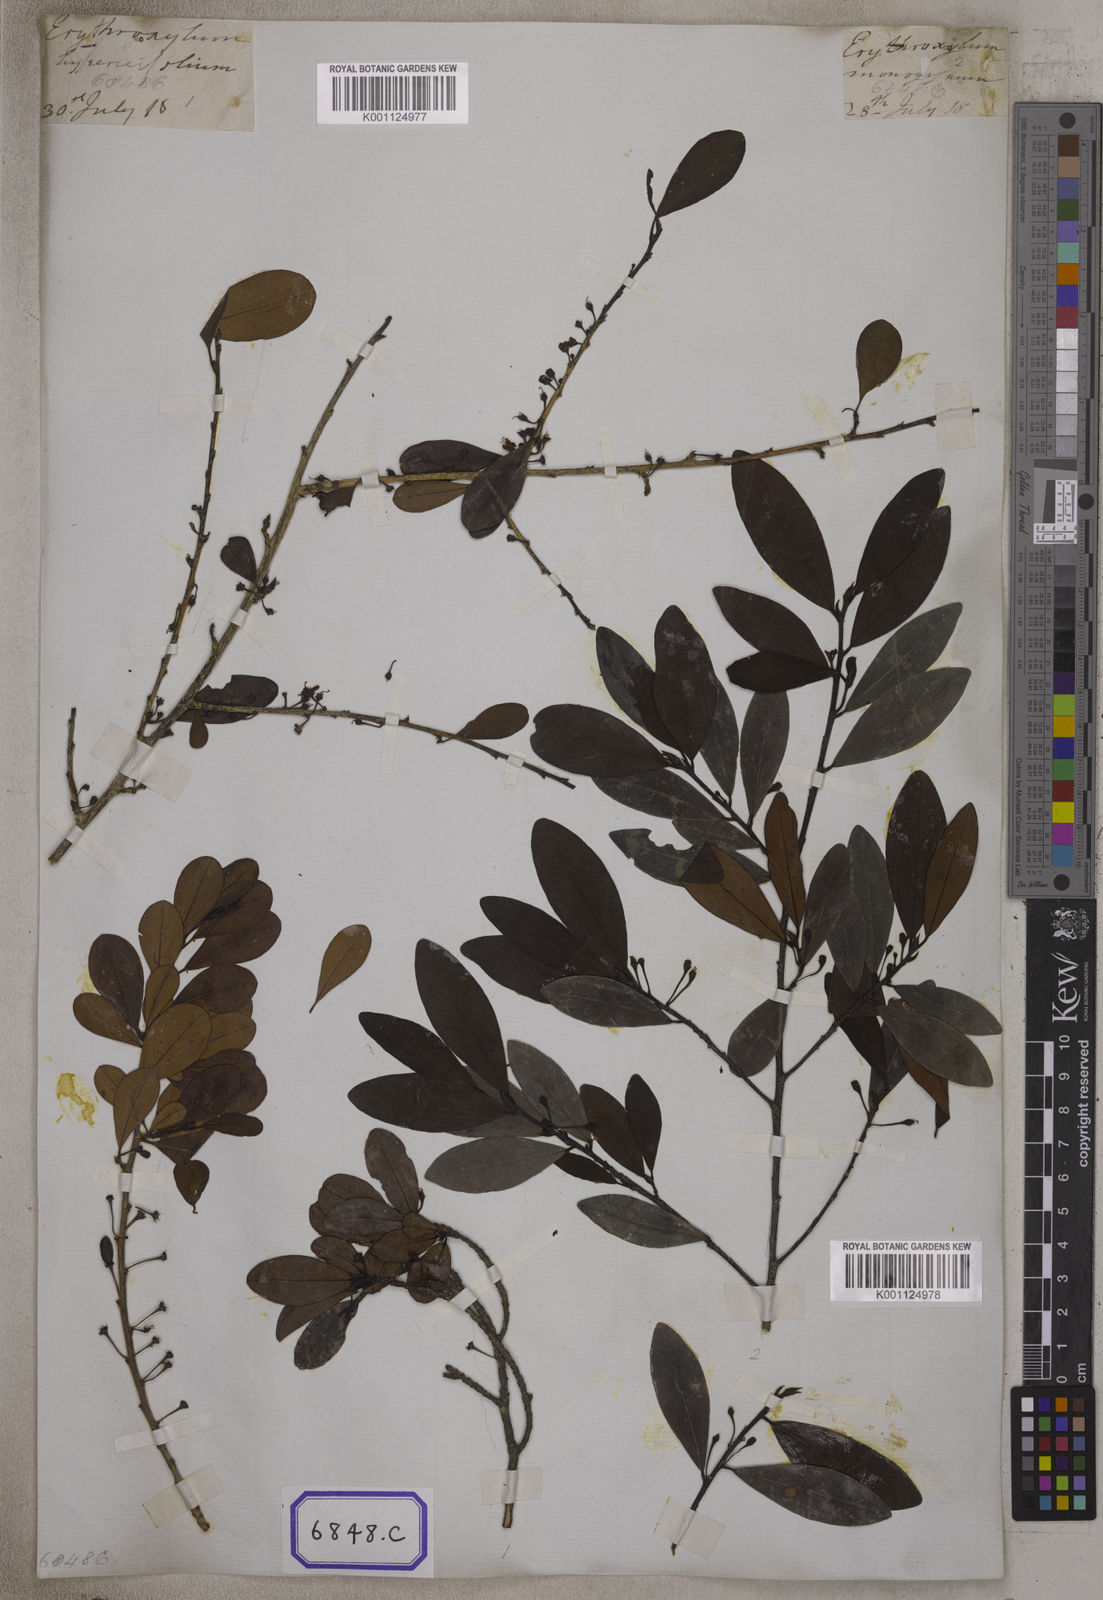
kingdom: Plantae
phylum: Tracheophyta
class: Magnoliopsida
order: Malpighiales
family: Erythroxylaceae
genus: Erythroxylum
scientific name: Erythroxylum monogynum
